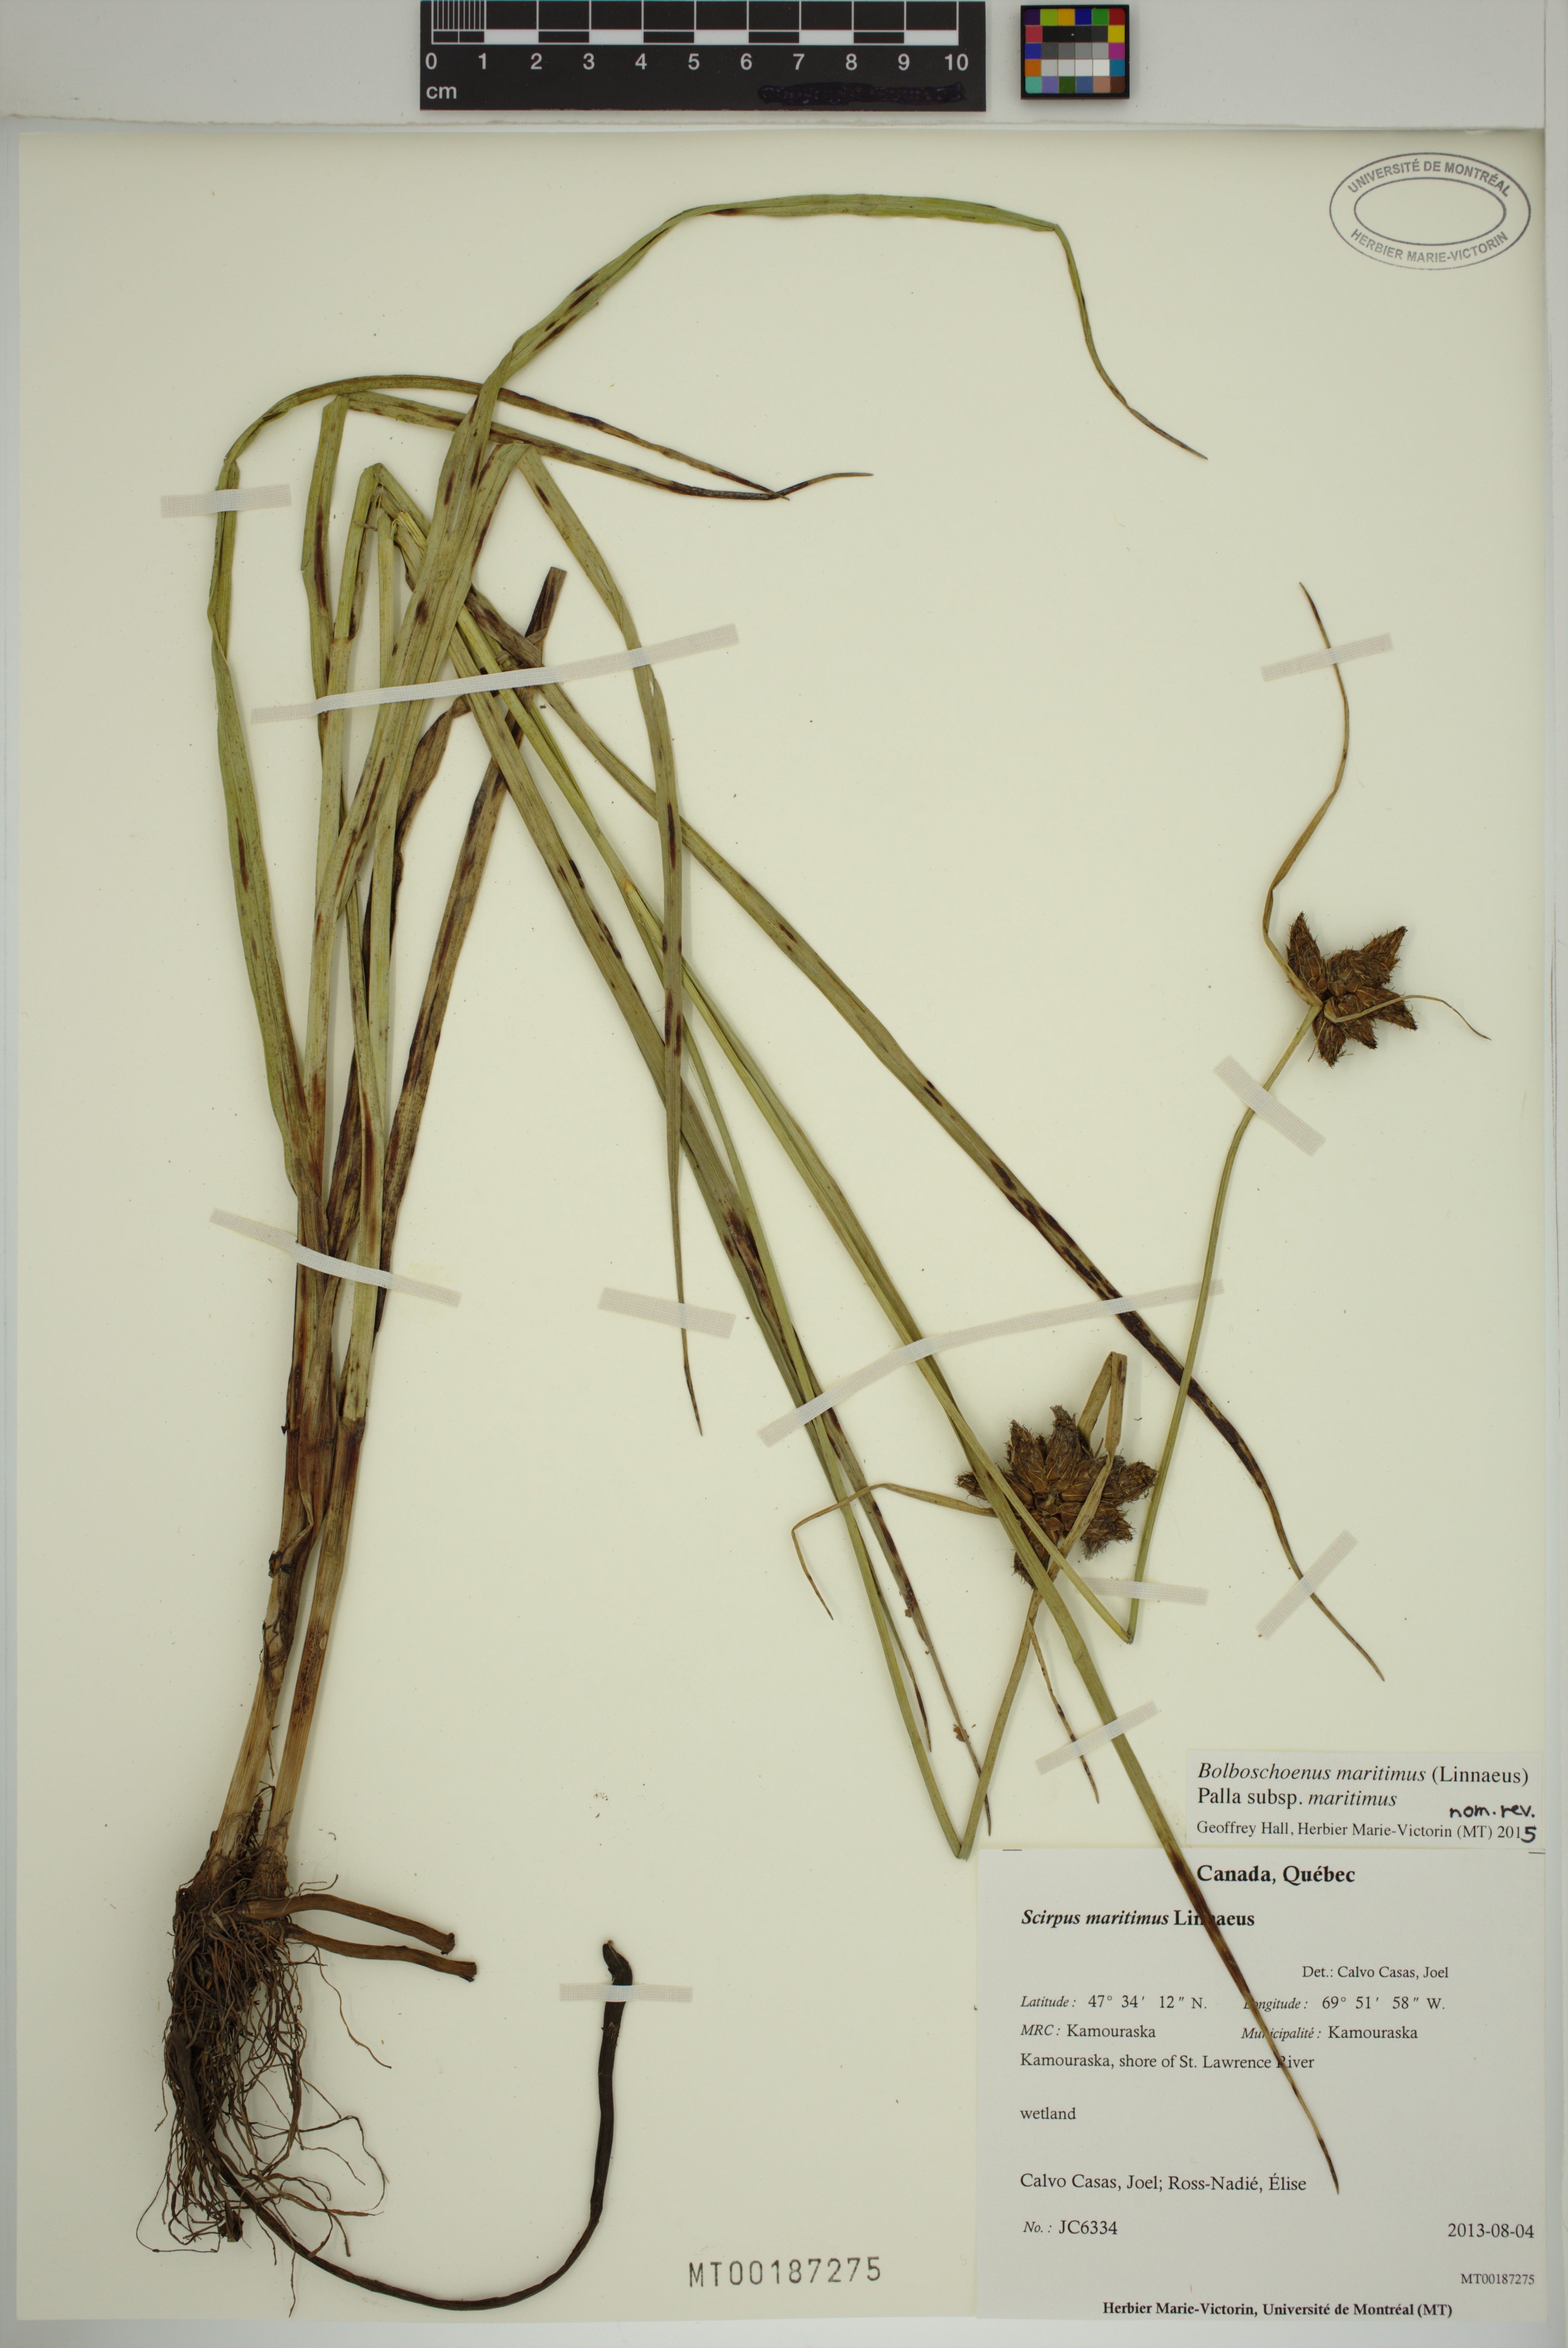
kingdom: Plantae
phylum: Tracheophyta
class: Liliopsida
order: Poales
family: Cyperaceae
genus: Bolboschoenus
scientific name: Bolboschoenus maritimus
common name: Sea club-rush
